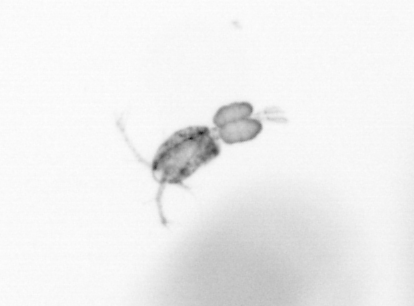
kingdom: Animalia
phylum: Arthropoda
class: Copepoda
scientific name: Copepoda
